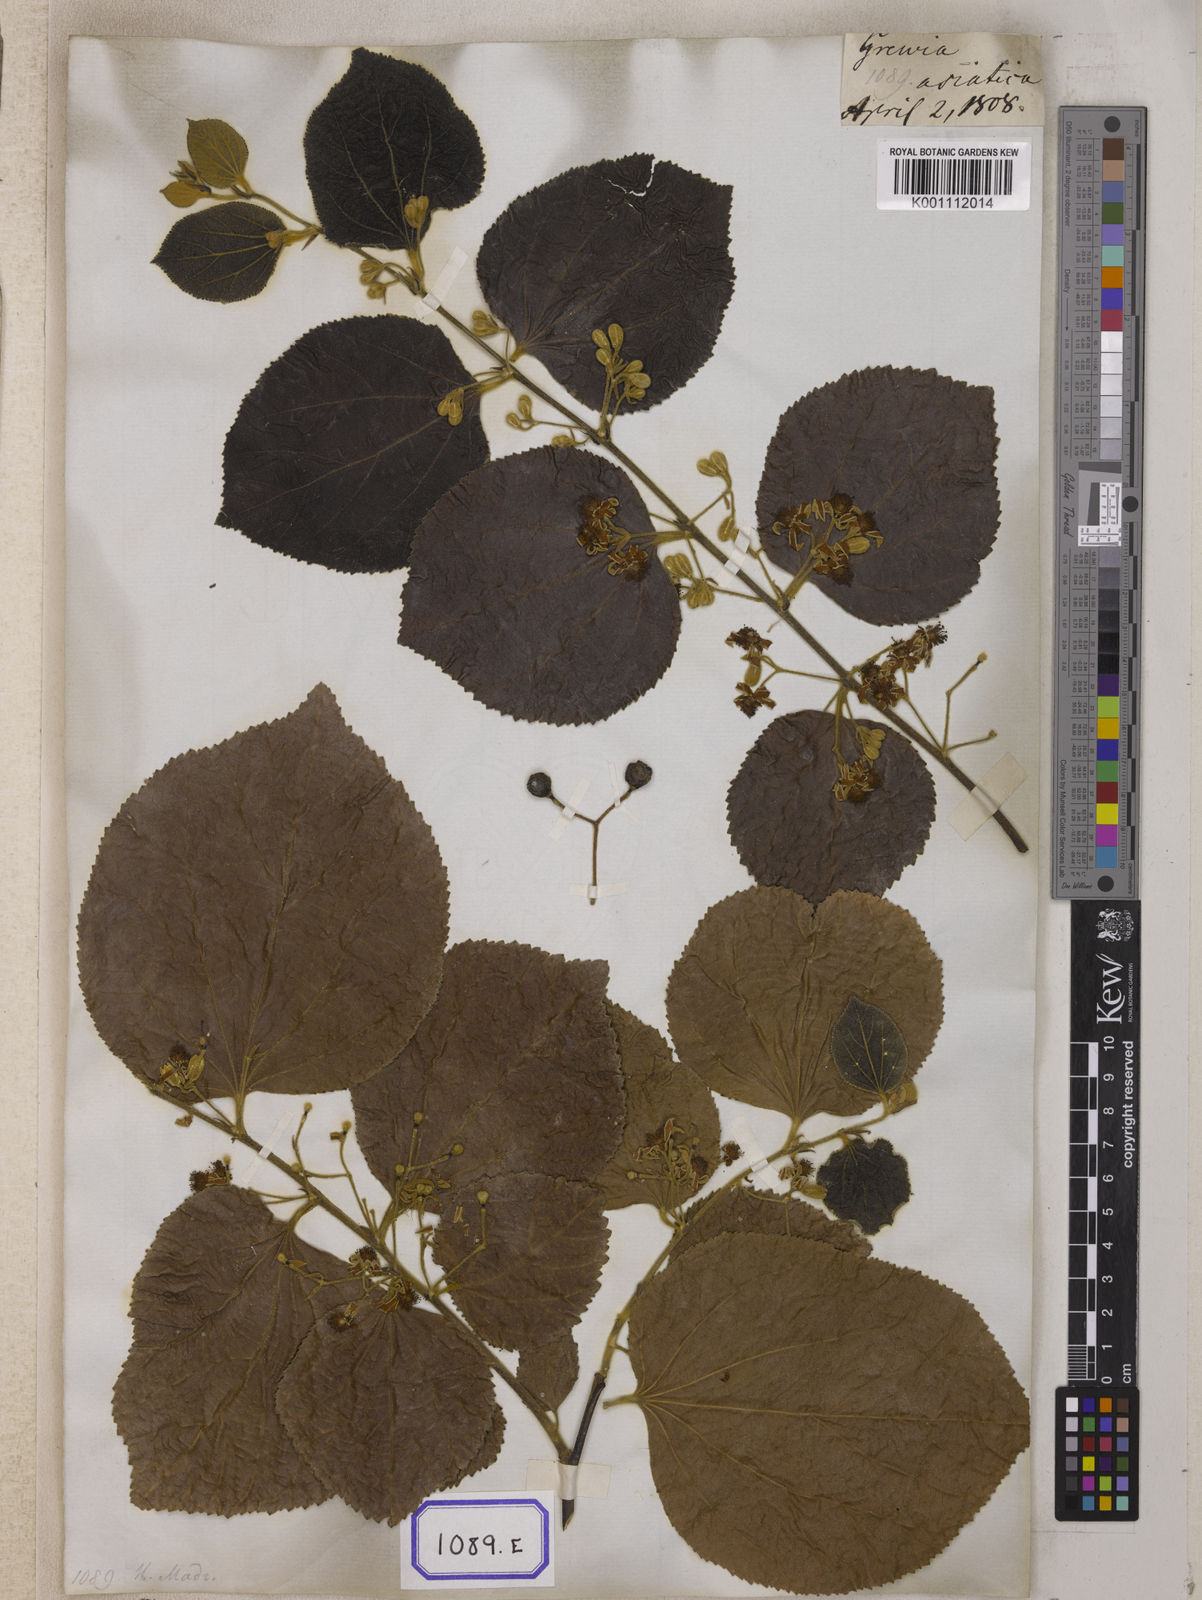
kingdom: Plantae
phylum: Tracheophyta
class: Magnoliopsida
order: Malvales
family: Malvaceae
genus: Grewia
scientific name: Grewia asiatica
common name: Phalsa
